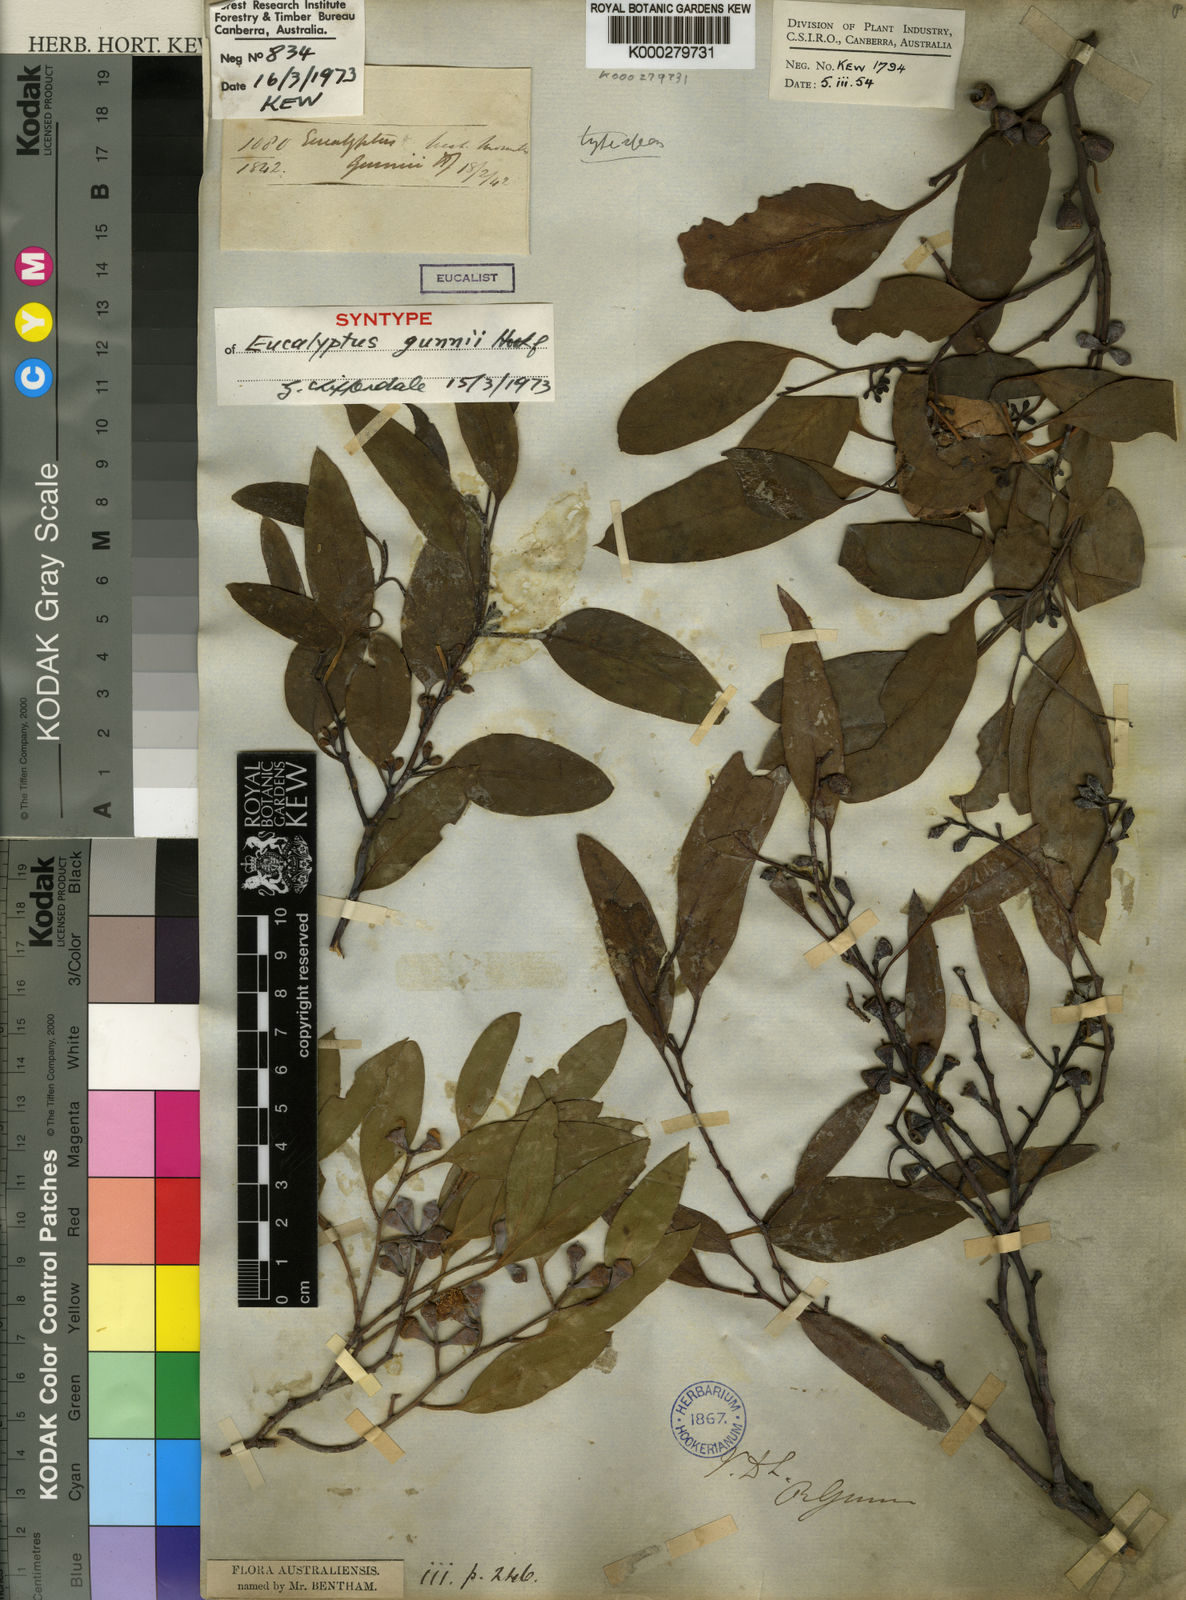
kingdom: Plantae
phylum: Tracheophyta
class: Magnoliopsida
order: Myrtales
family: Myrtaceae
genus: Eucalyptus
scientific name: Eucalyptus gunnii
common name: Cider gum
